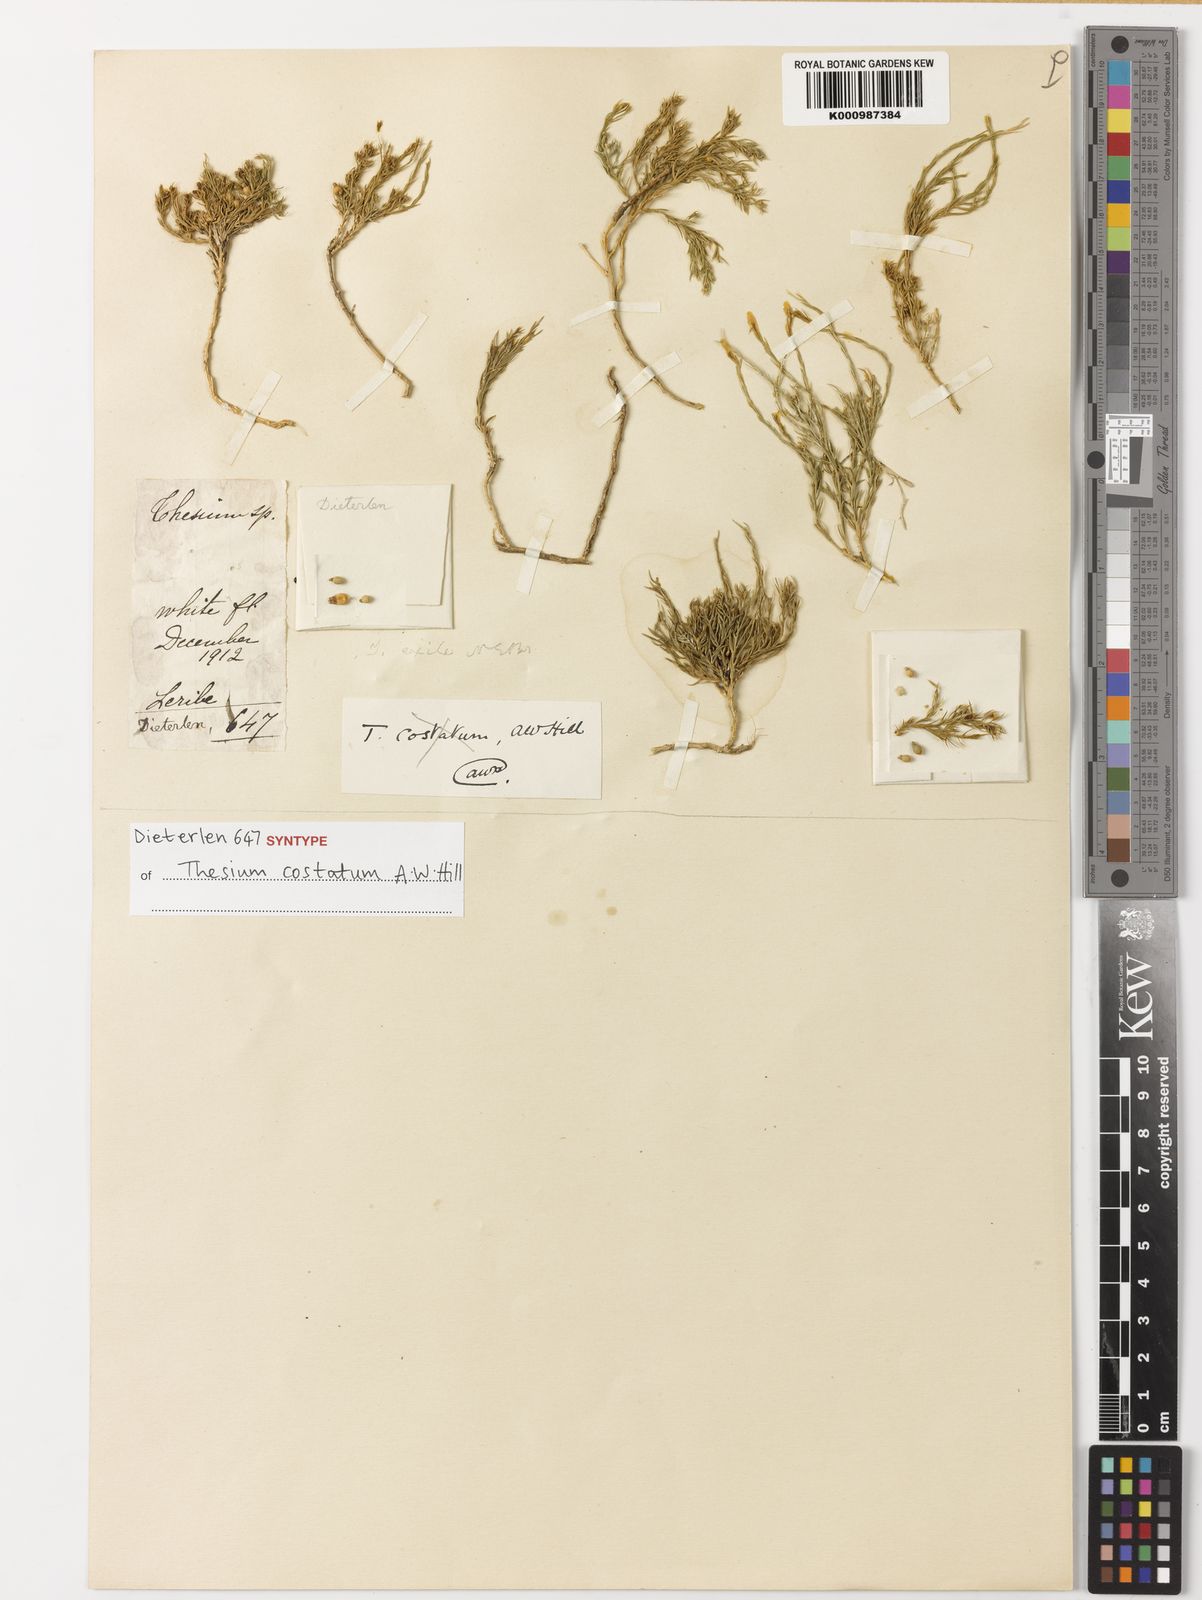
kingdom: Plantae
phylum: Tracheophyta
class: Magnoliopsida
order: Santalales
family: Thesiaceae
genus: Thesium
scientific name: Thesium costatum
